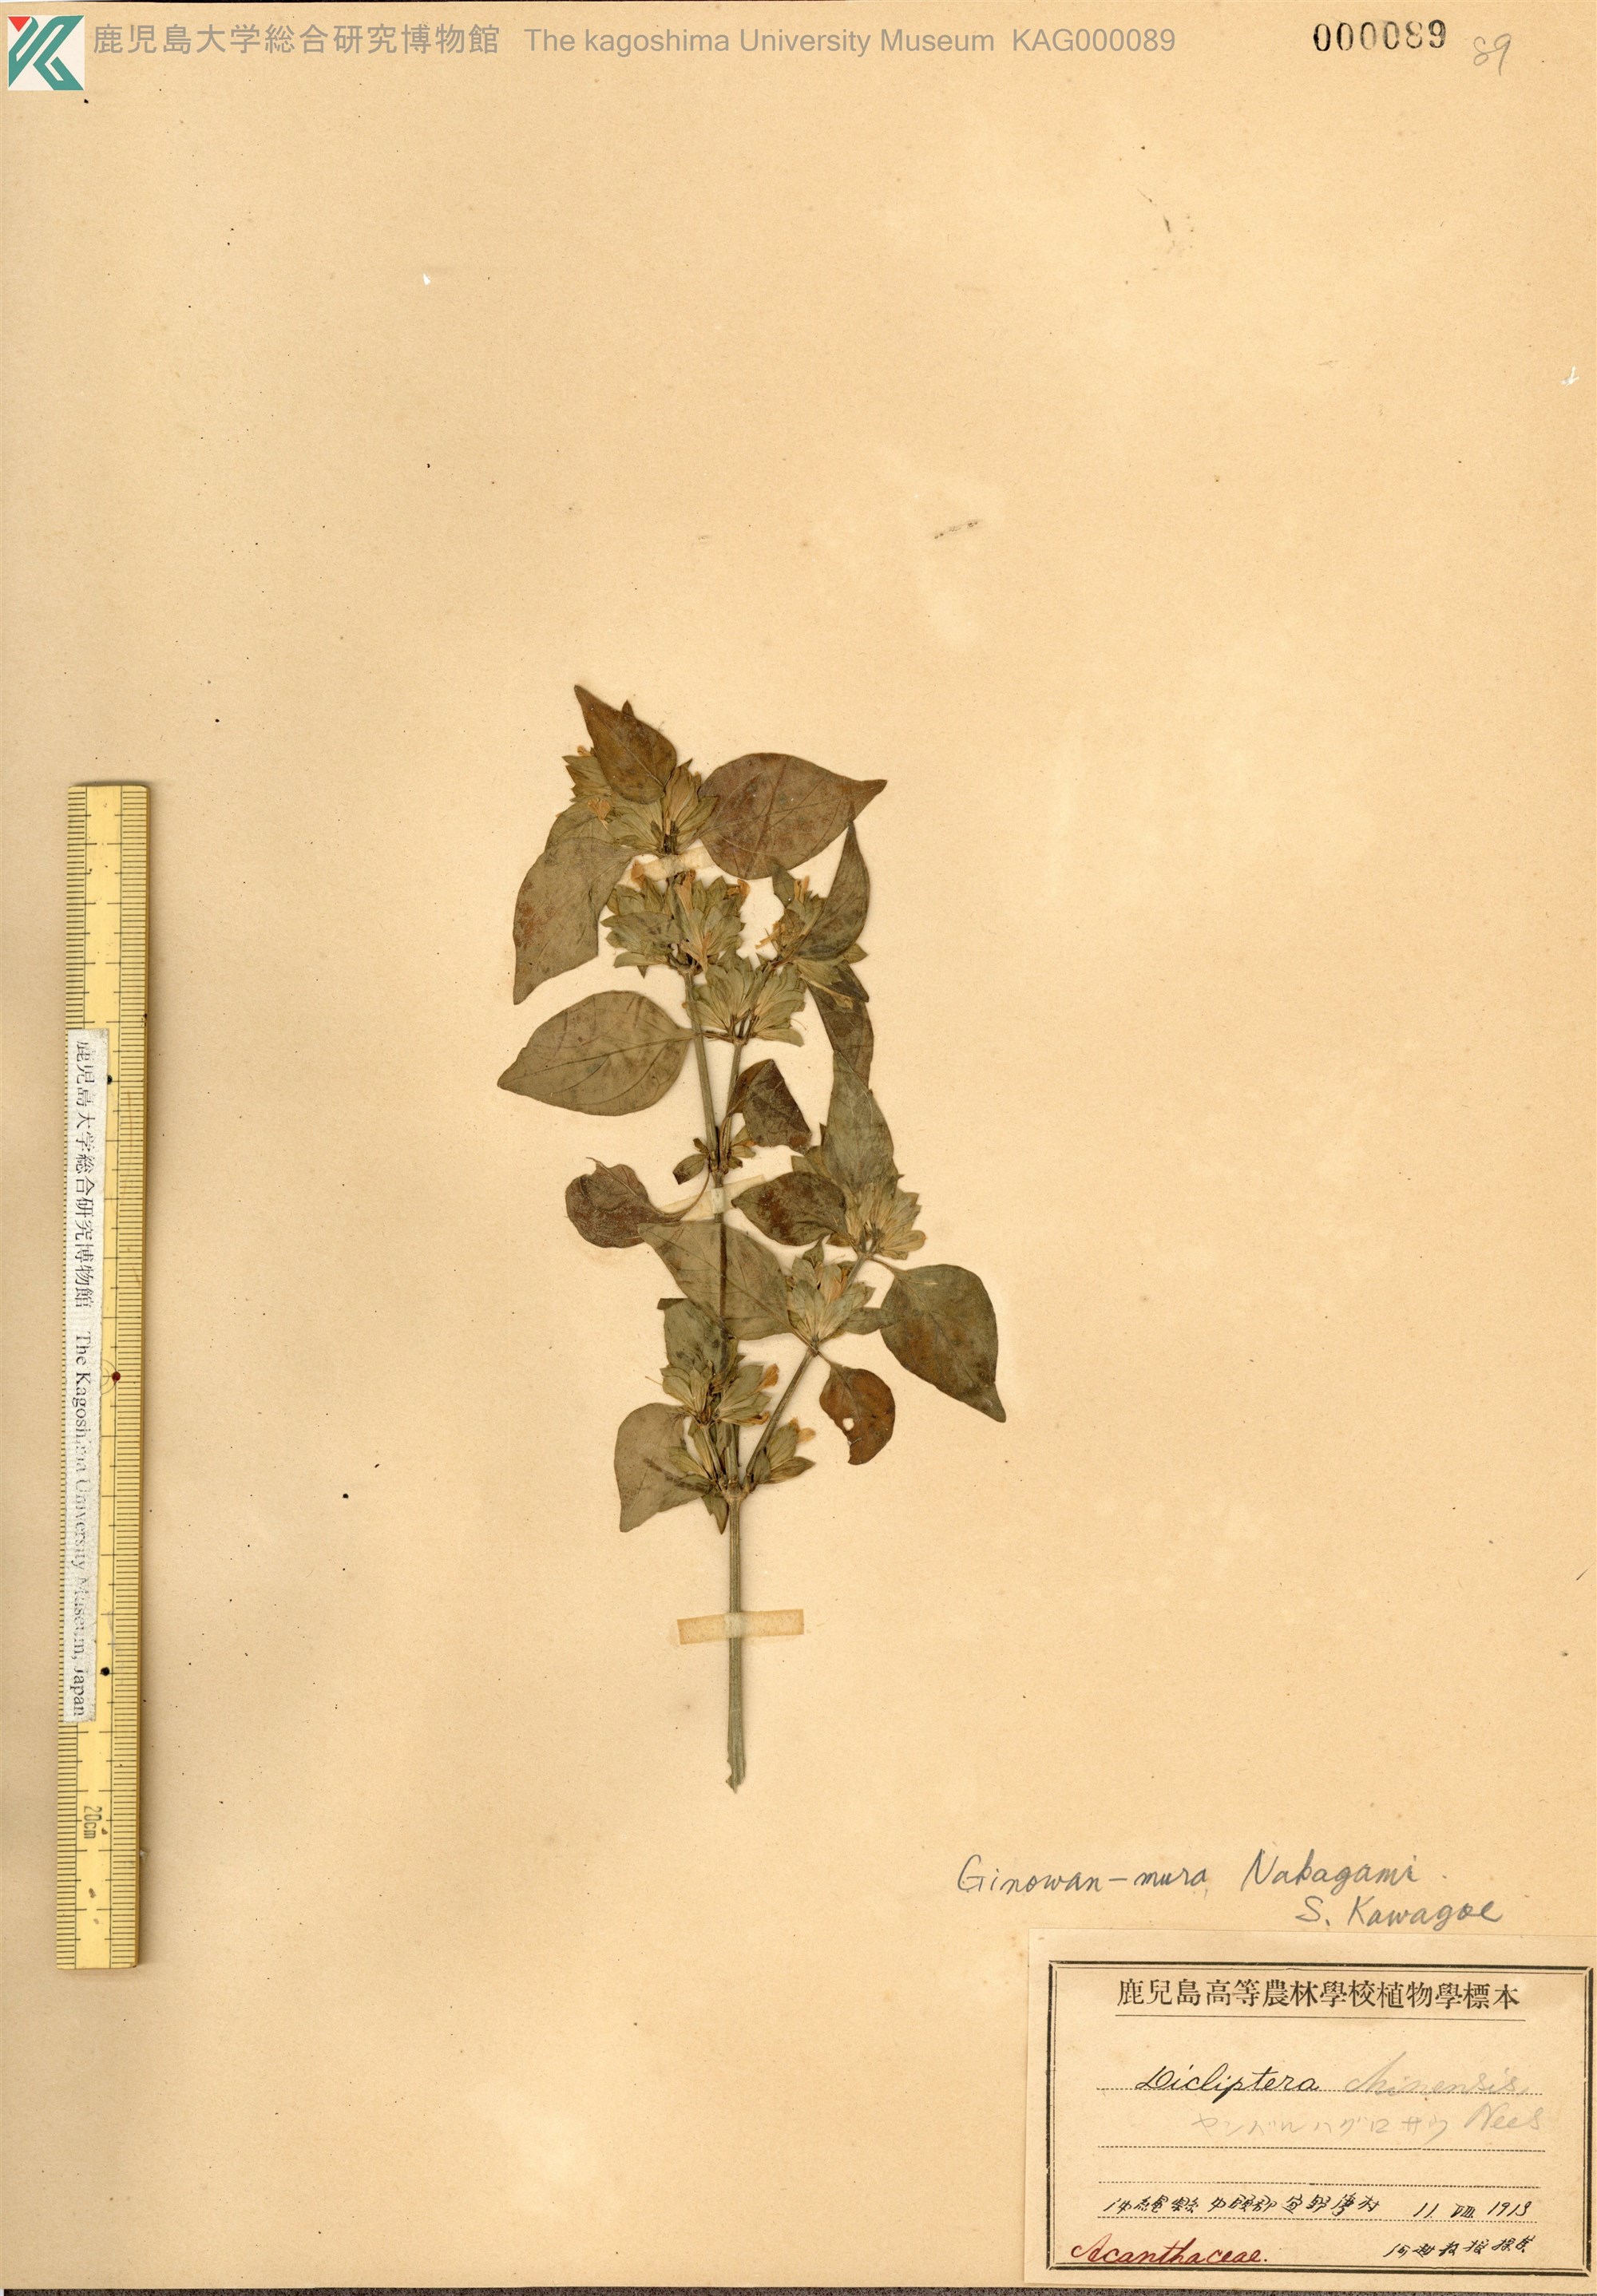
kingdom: Plantae
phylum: Tracheophyta
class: Magnoliopsida
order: Lamiales
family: Acanthaceae
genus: Dicliptera
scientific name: Dicliptera chinensis
